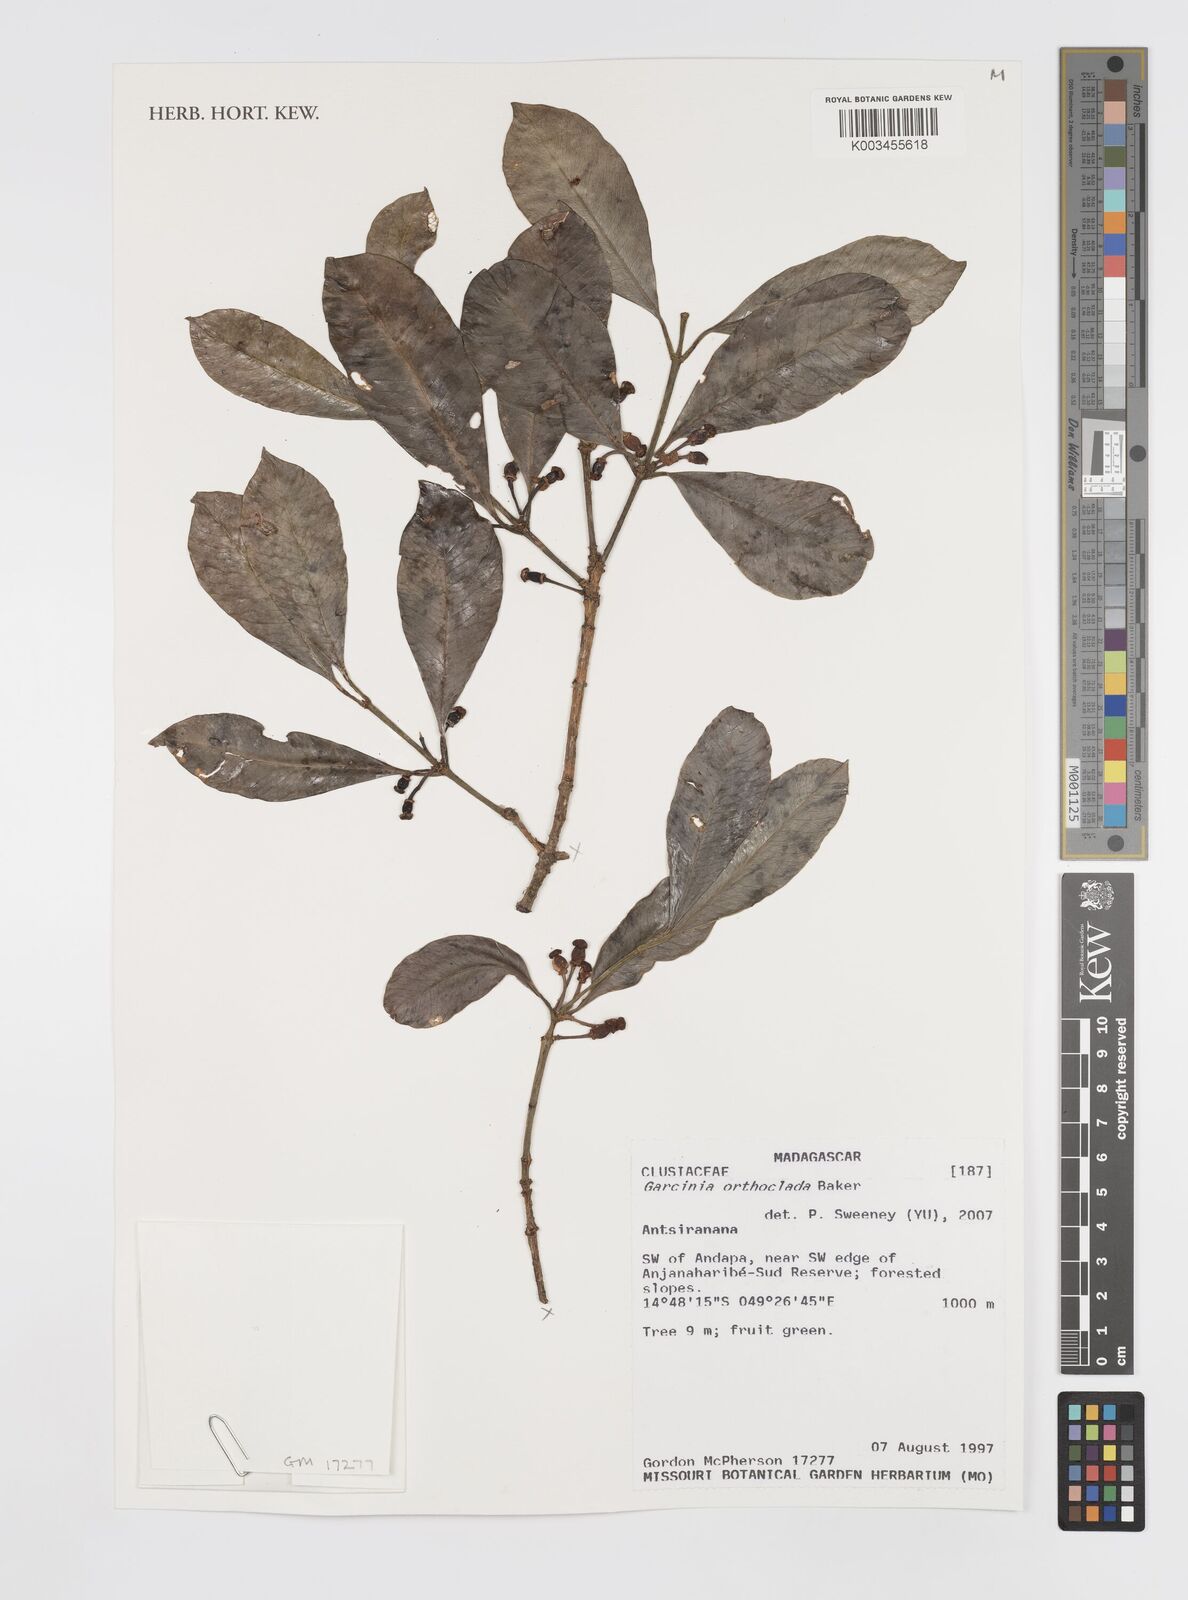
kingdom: Plantae
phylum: Tracheophyta
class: Magnoliopsida
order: Malpighiales
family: Clusiaceae
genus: Garcinia
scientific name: Garcinia orthoclada
